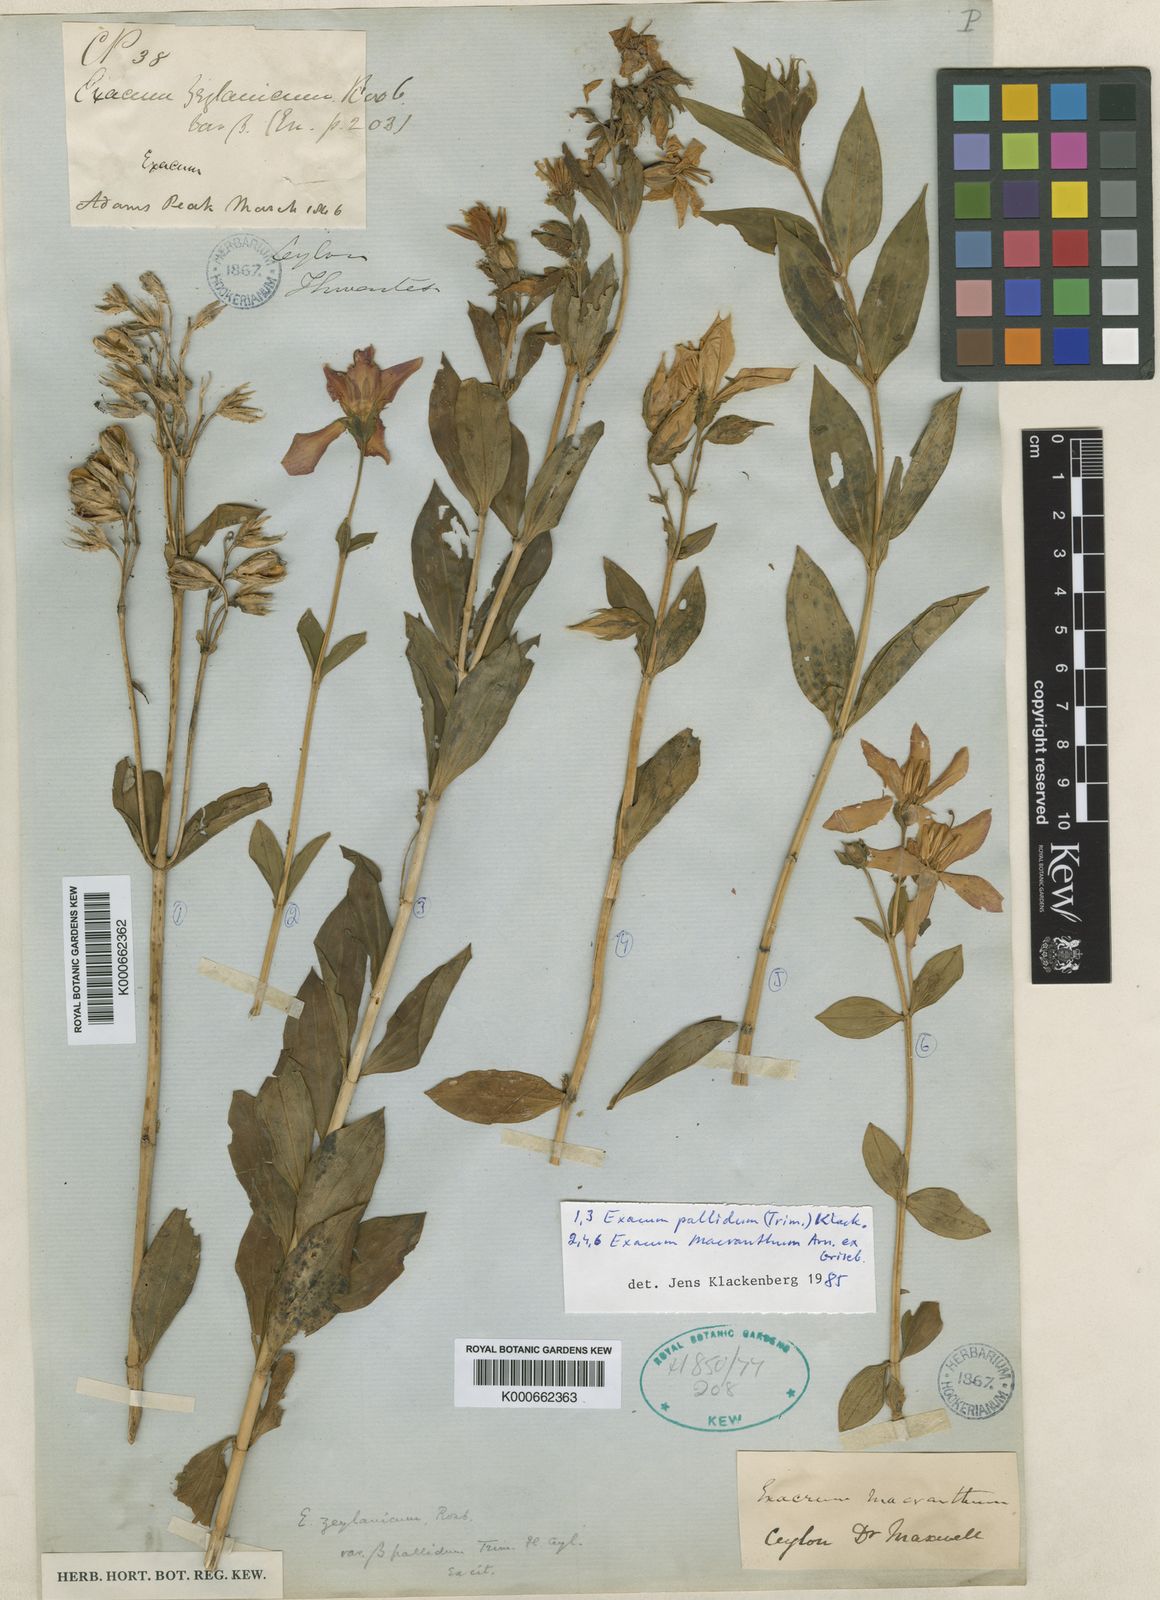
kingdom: Plantae
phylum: Tracheophyta
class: Magnoliopsida
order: Gentianales
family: Gentianaceae
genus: Exacum
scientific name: Exacum pallidum
